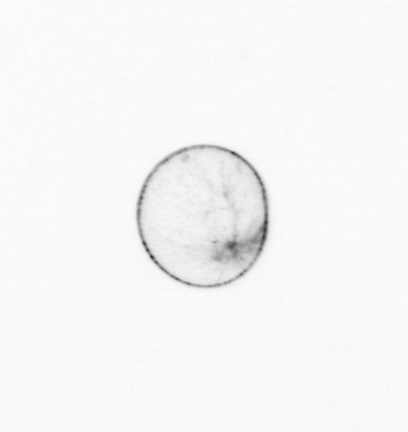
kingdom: Chromista
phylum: Myzozoa
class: Dinophyceae
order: Noctilucales
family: Noctilucaceae
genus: Noctiluca
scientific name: Noctiluca scintillans
